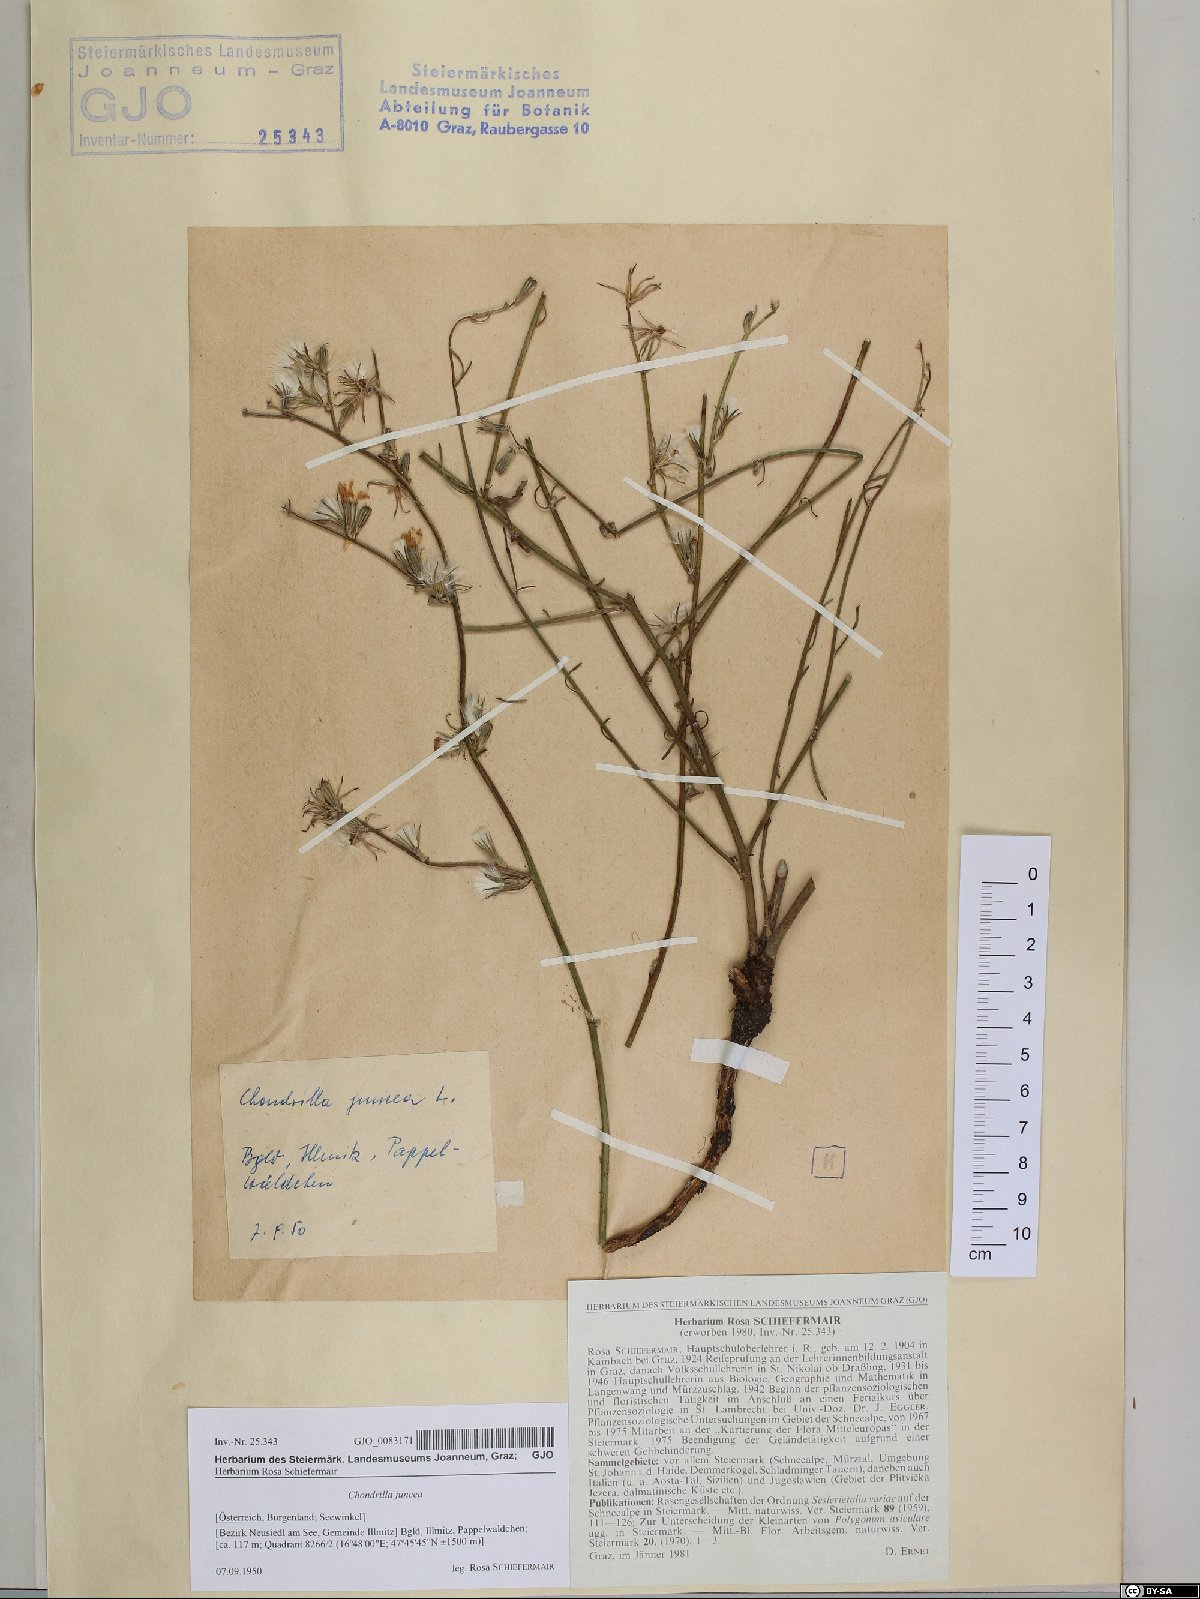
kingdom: Plantae
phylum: Tracheophyta
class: Magnoliopsida
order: Asterales
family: Asteraceae
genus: Chondrilla
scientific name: Chondrilla juncea
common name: Skeleton weed
